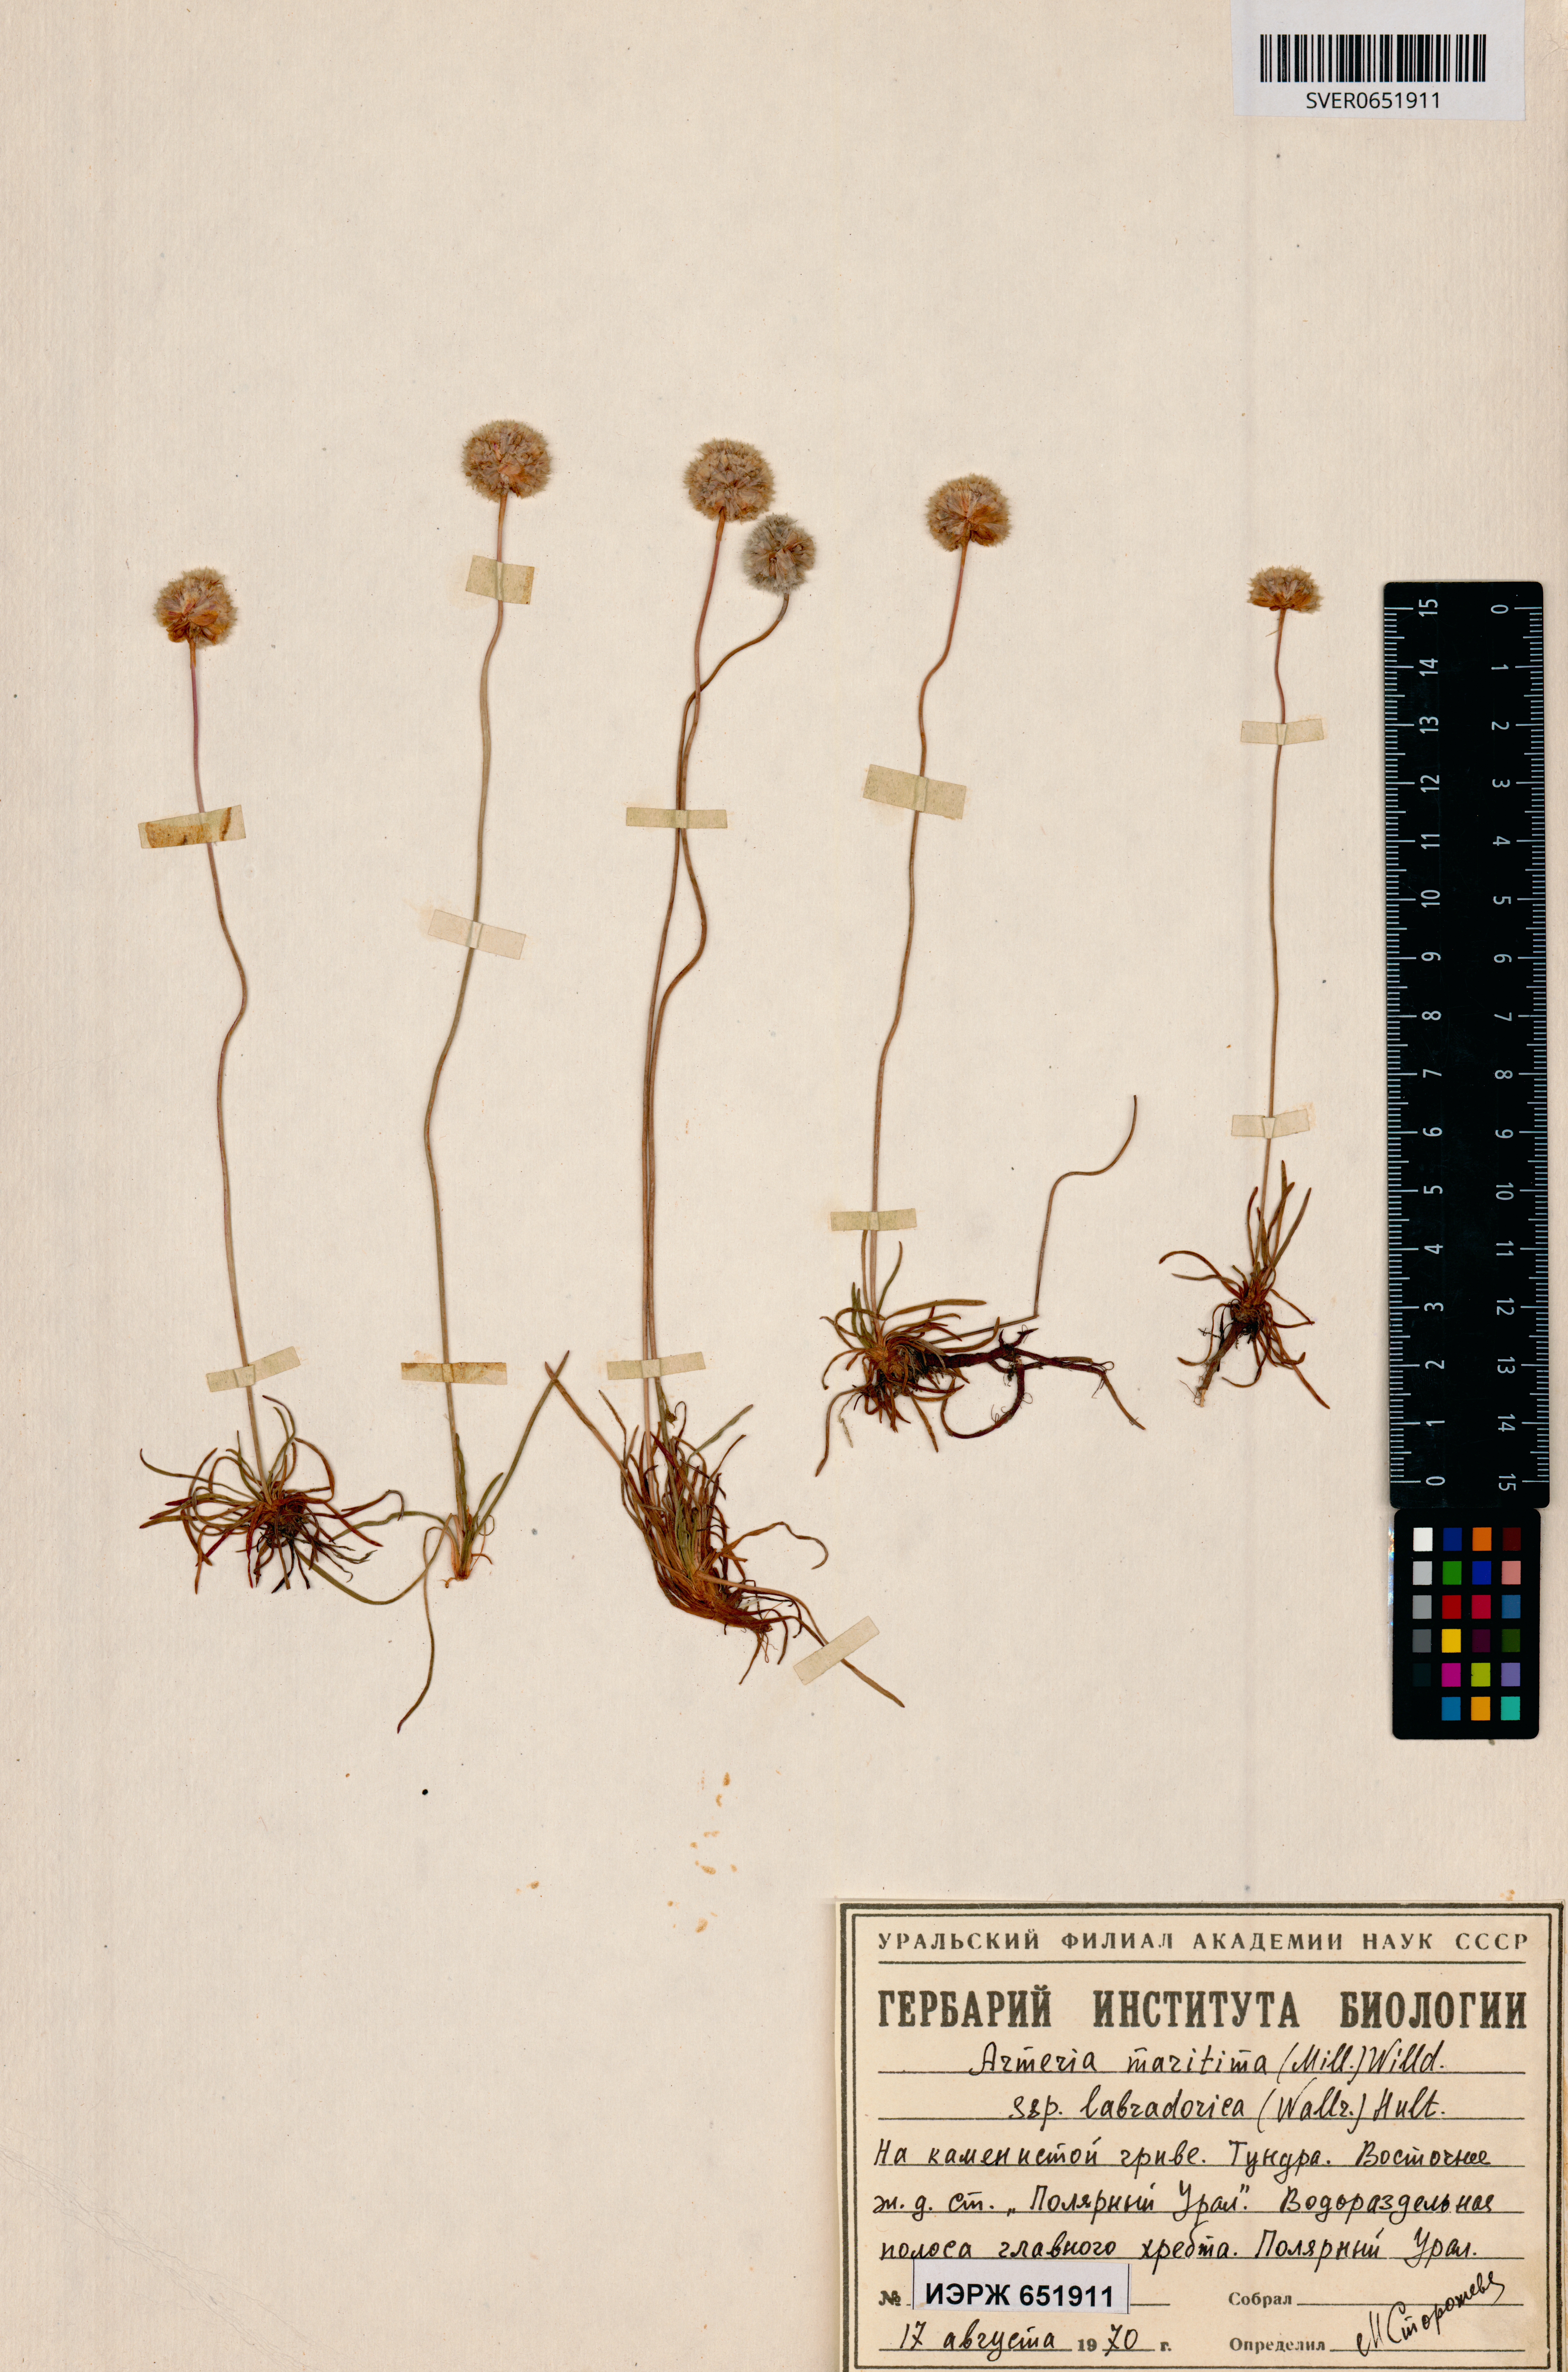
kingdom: Plantae
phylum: Tracheophyta
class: Magnoliopsida
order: Caryophyllales
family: Plumbaginaceae
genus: Armeria
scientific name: Armeria maritima
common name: Thrift
